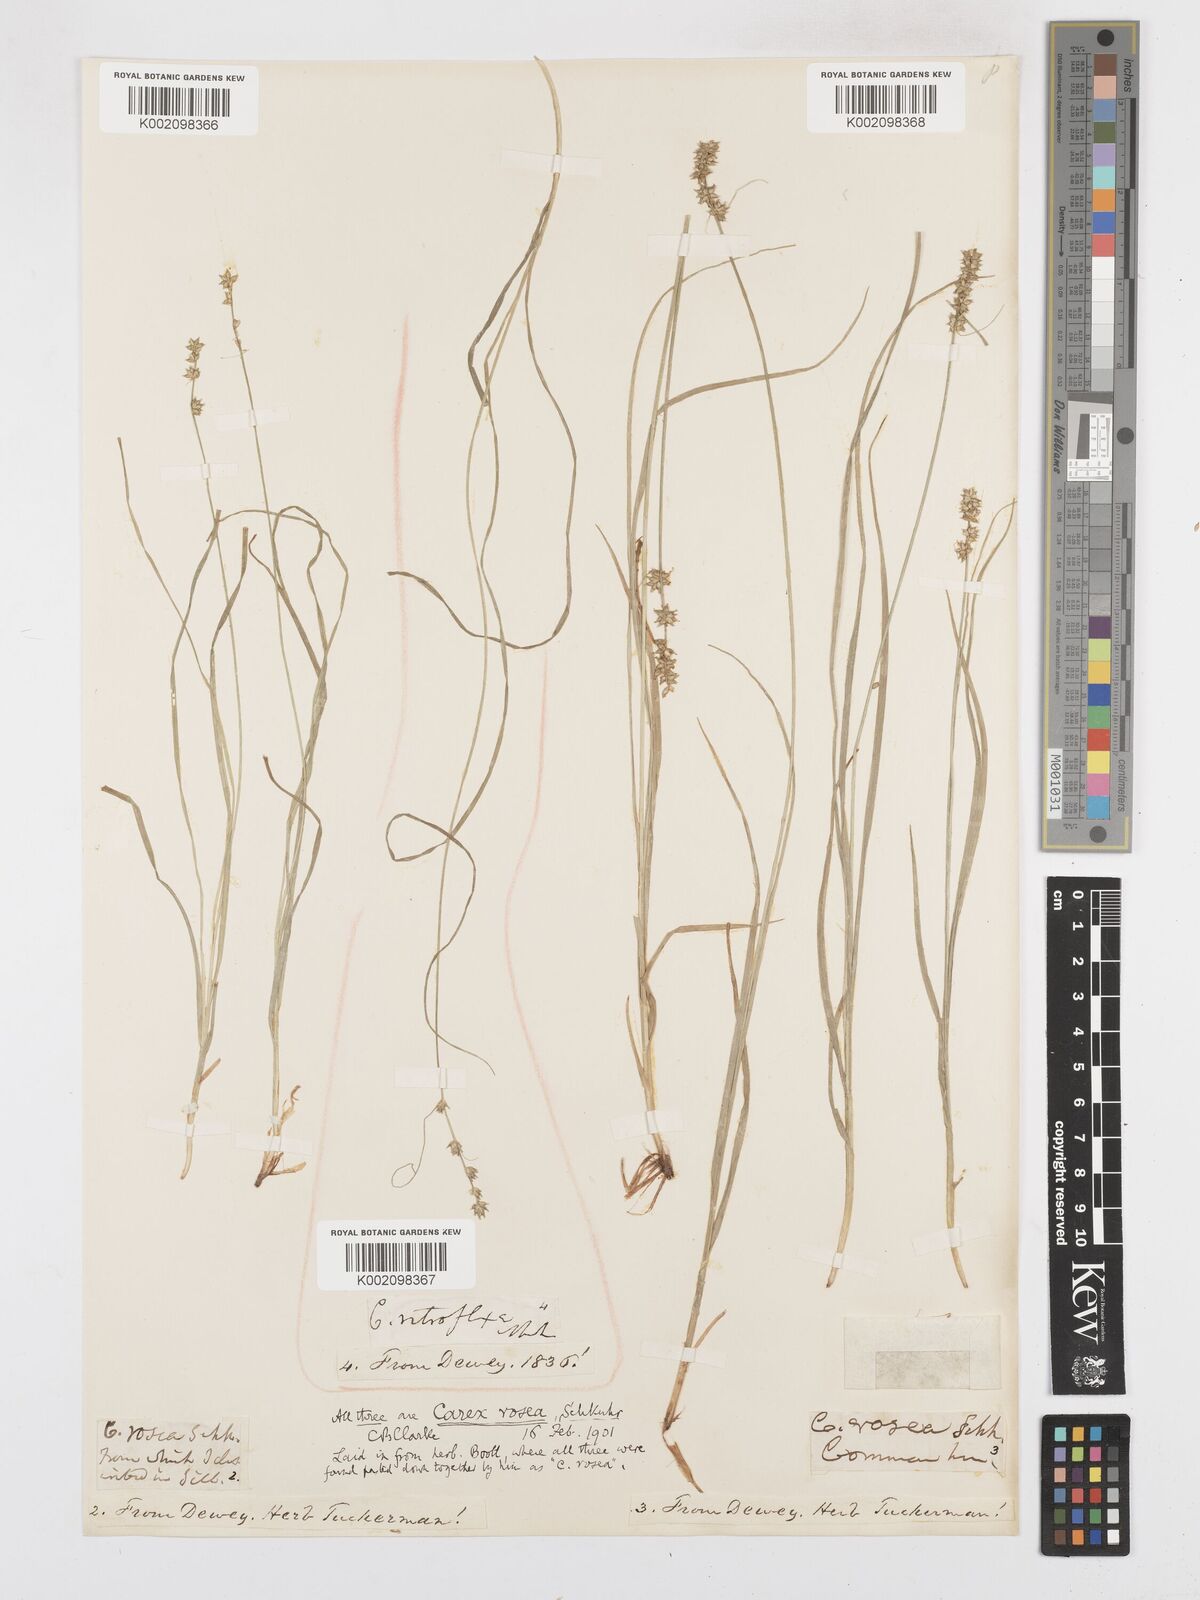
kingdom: Plantae
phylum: Tracheophyta
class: Liliopsida
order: Poales
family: Cyperaceae
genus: Carex
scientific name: Carex rosea
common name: Curly-styled wood sedge
